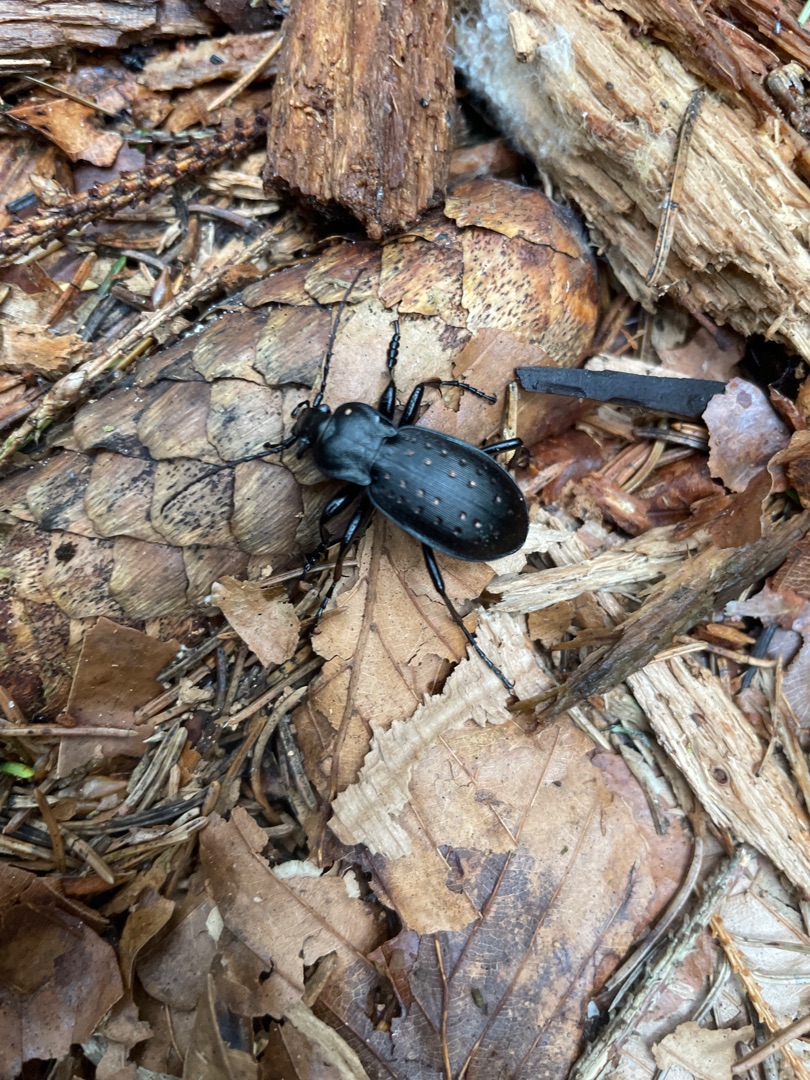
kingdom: Animalia
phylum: Arthropoda
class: Insecta
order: Coleoptera
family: Carabidae
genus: Carabus
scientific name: Carabus hortensis
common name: Guldpletløber
